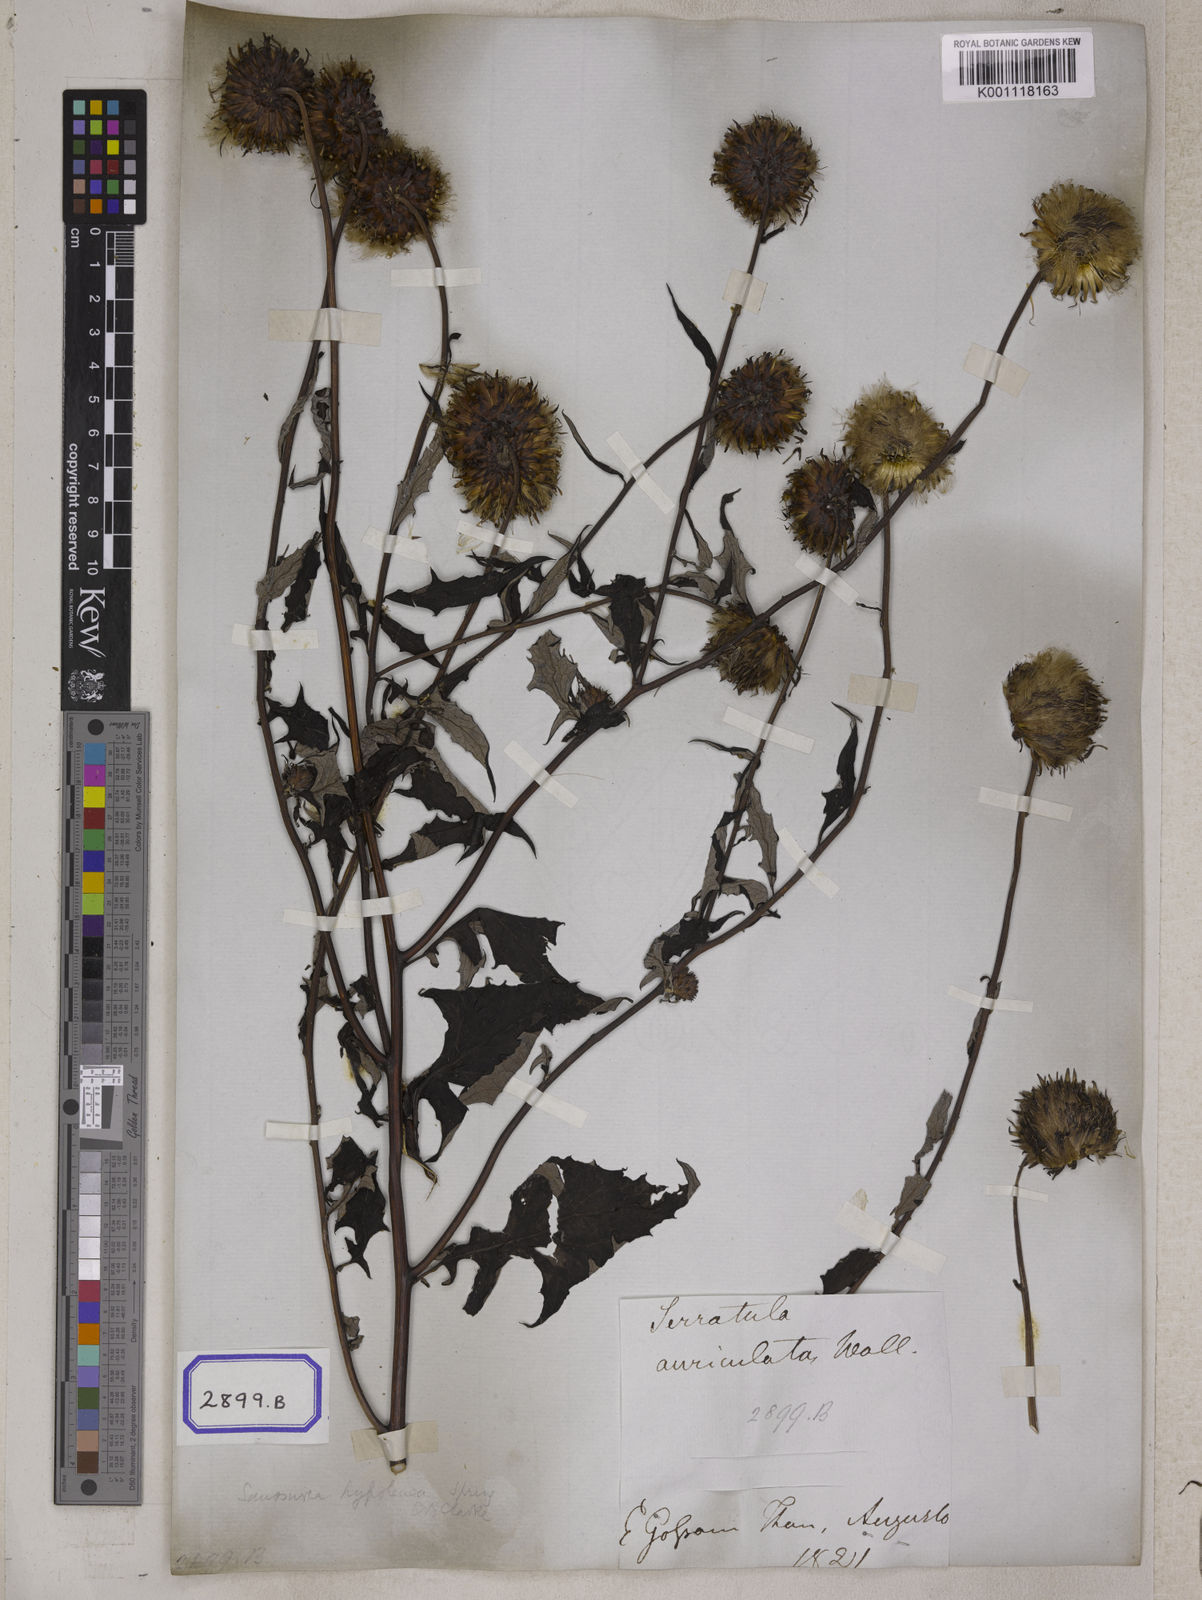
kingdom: Plantae
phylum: Tracheophyta
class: Magnoliopsida
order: Asterales
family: Asteraceae
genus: Jurinea
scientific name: Jurinea auriculata
